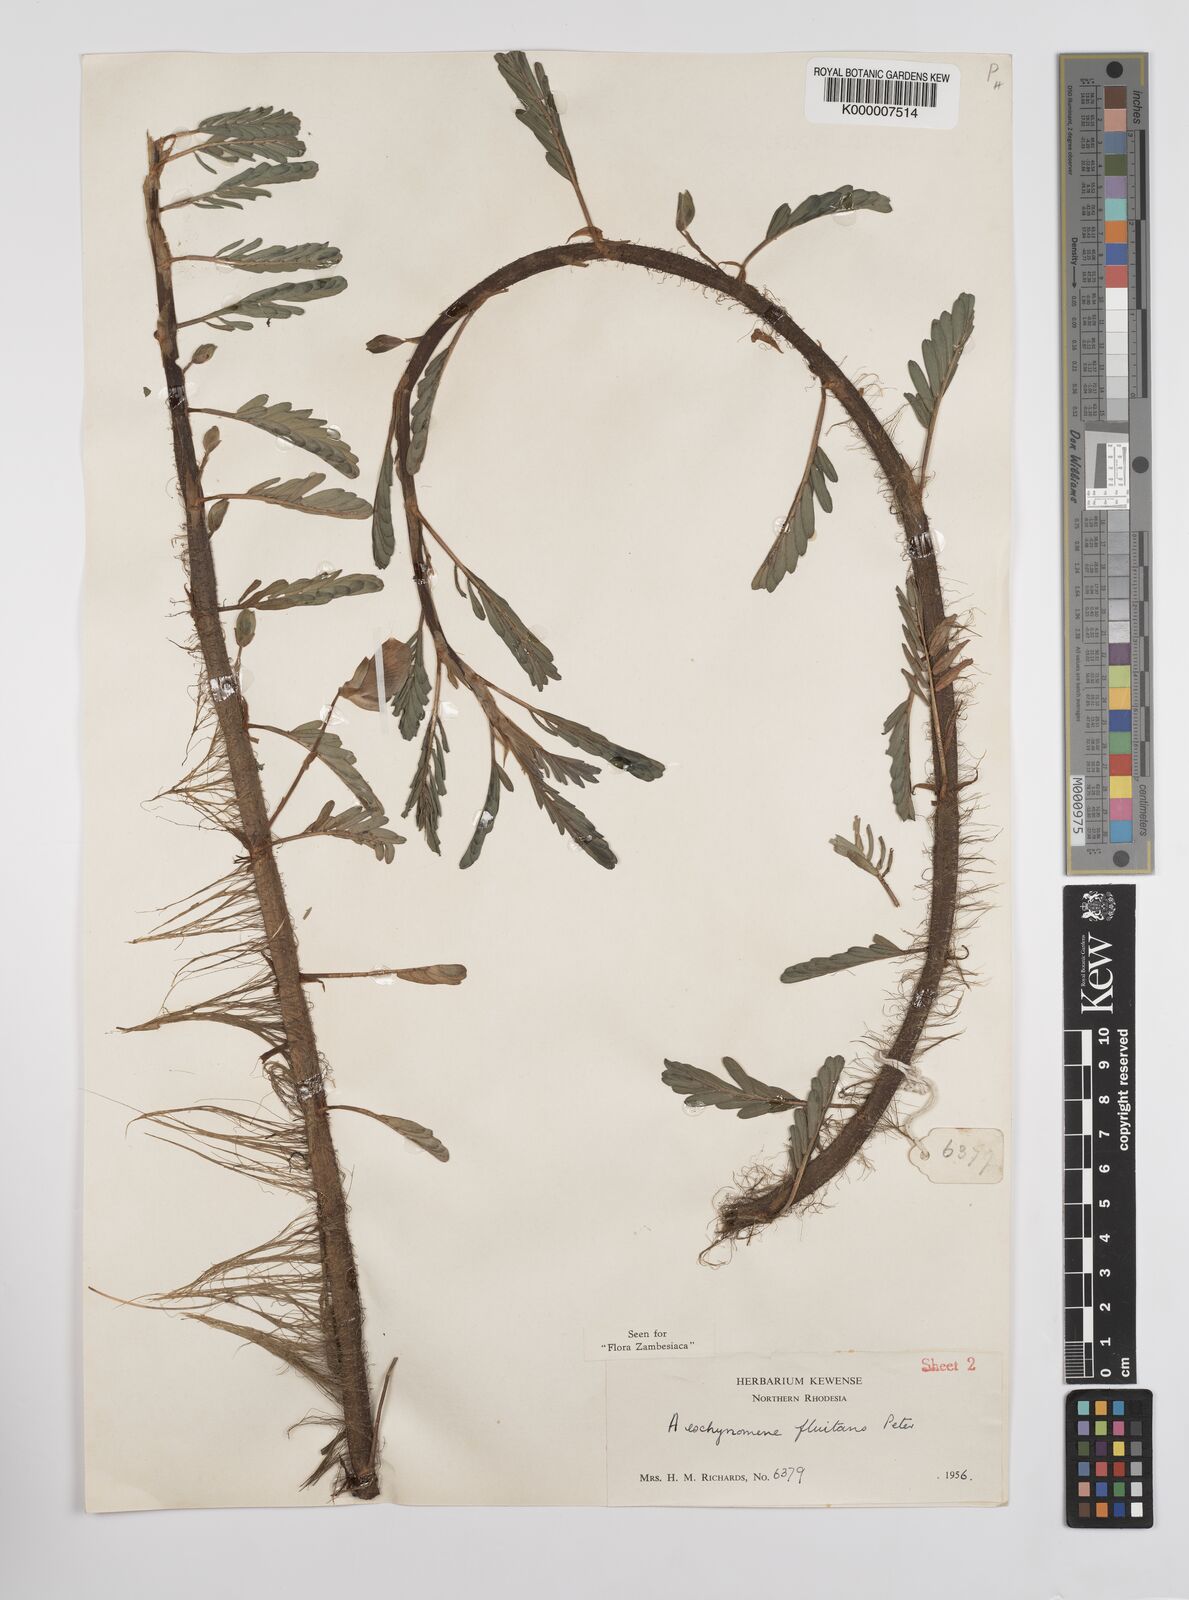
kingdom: Plantae
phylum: Tracheophyta
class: Magnoliopsida
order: Fabales
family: Fabaceae
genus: Aeschynomene
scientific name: Aeschynomene fluitans
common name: Giant water sensitive plant
